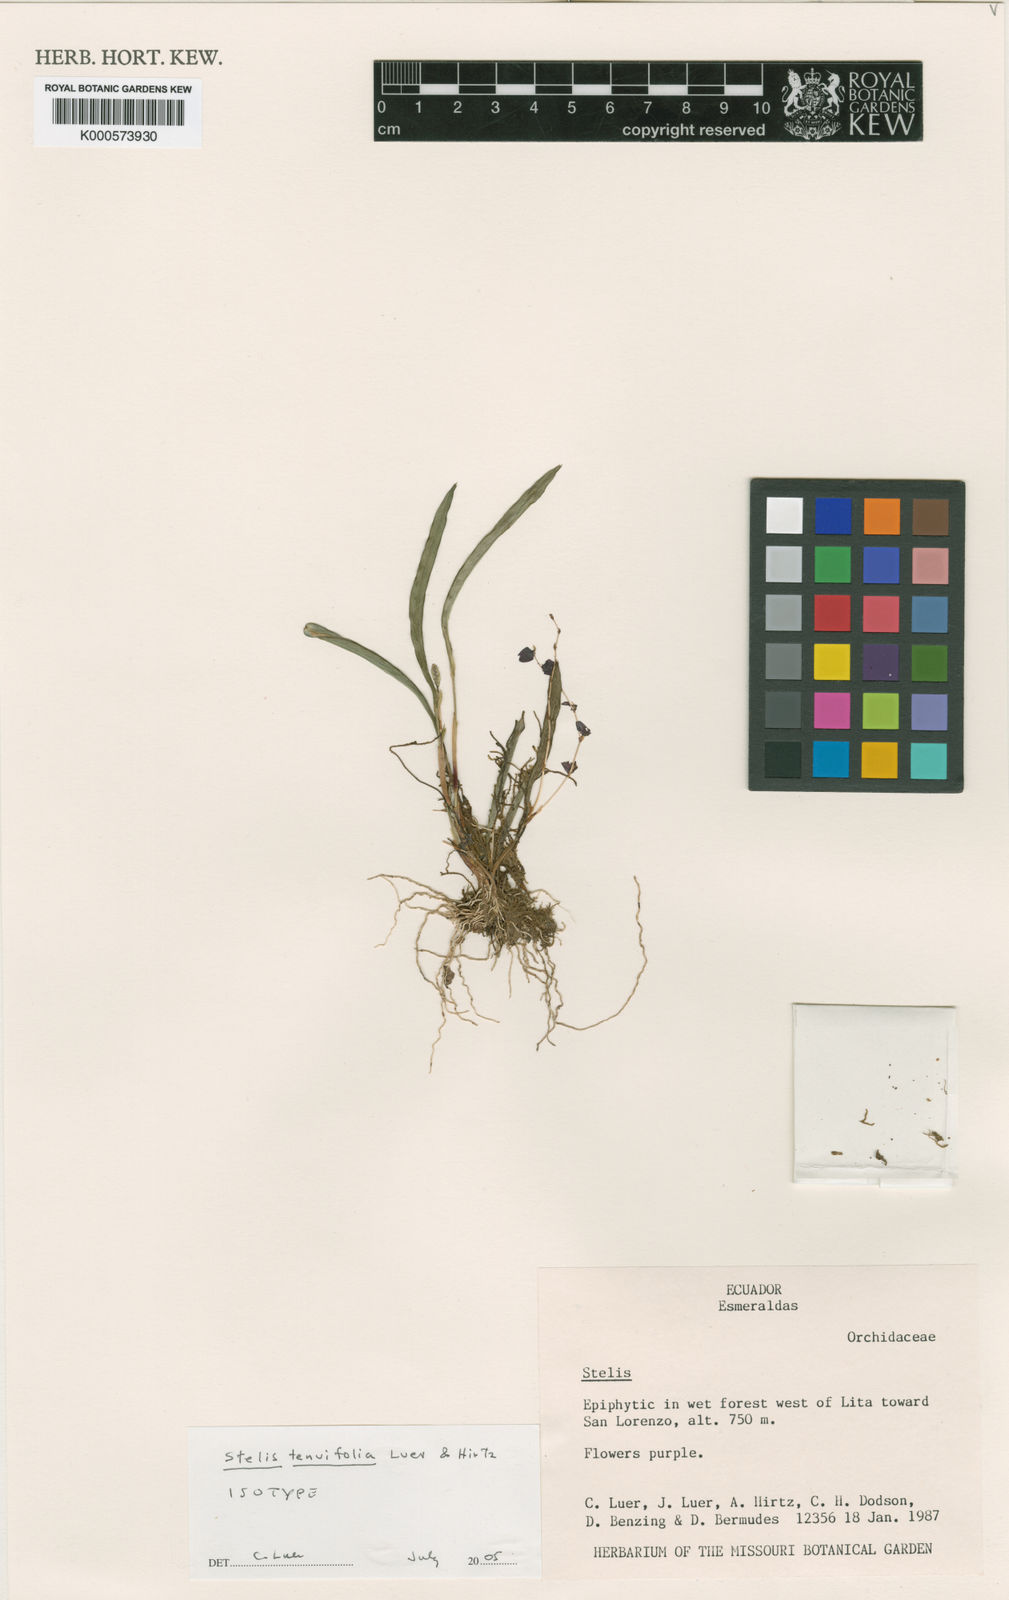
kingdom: Plantae
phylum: Tracheophyta
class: Liliopsida
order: Asparagales
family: Orchidaceae
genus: Stelis
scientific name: Stelis tenuifolia
